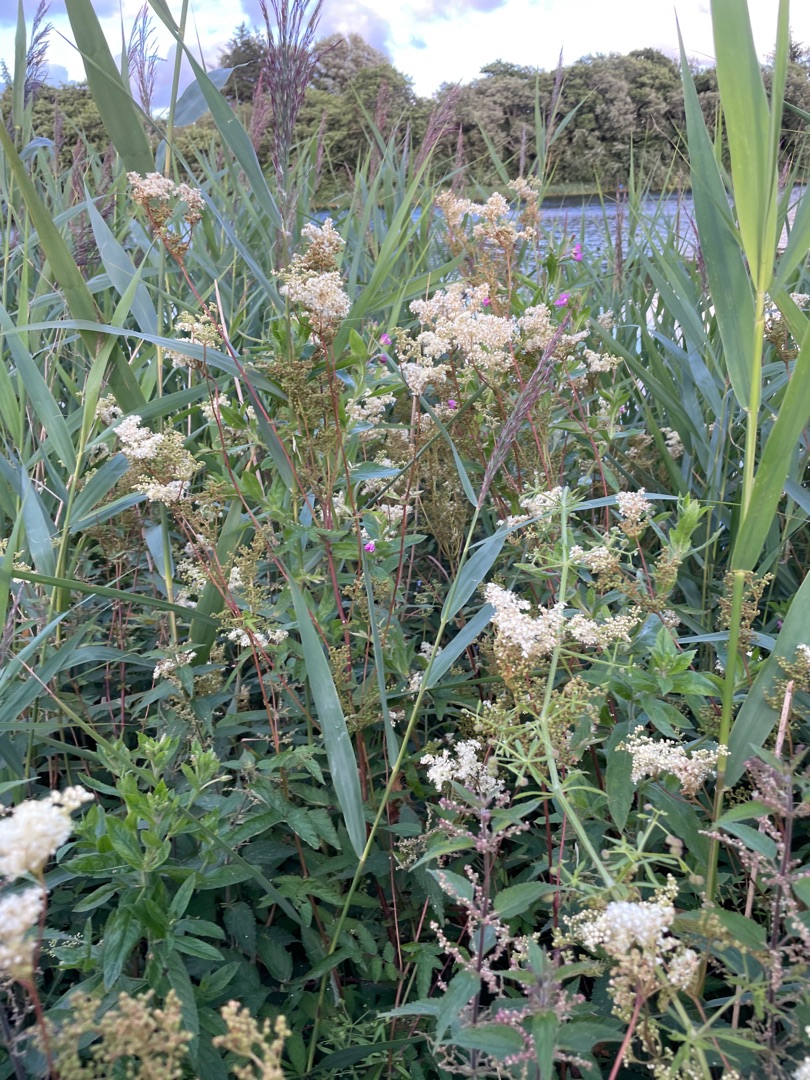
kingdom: Plantae
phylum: Tracheophyta
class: Magnoliopsida
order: Rosales
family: Rosaceae
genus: Filipendula
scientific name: Filipendula ulmaria
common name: Almindelig mjødurt
